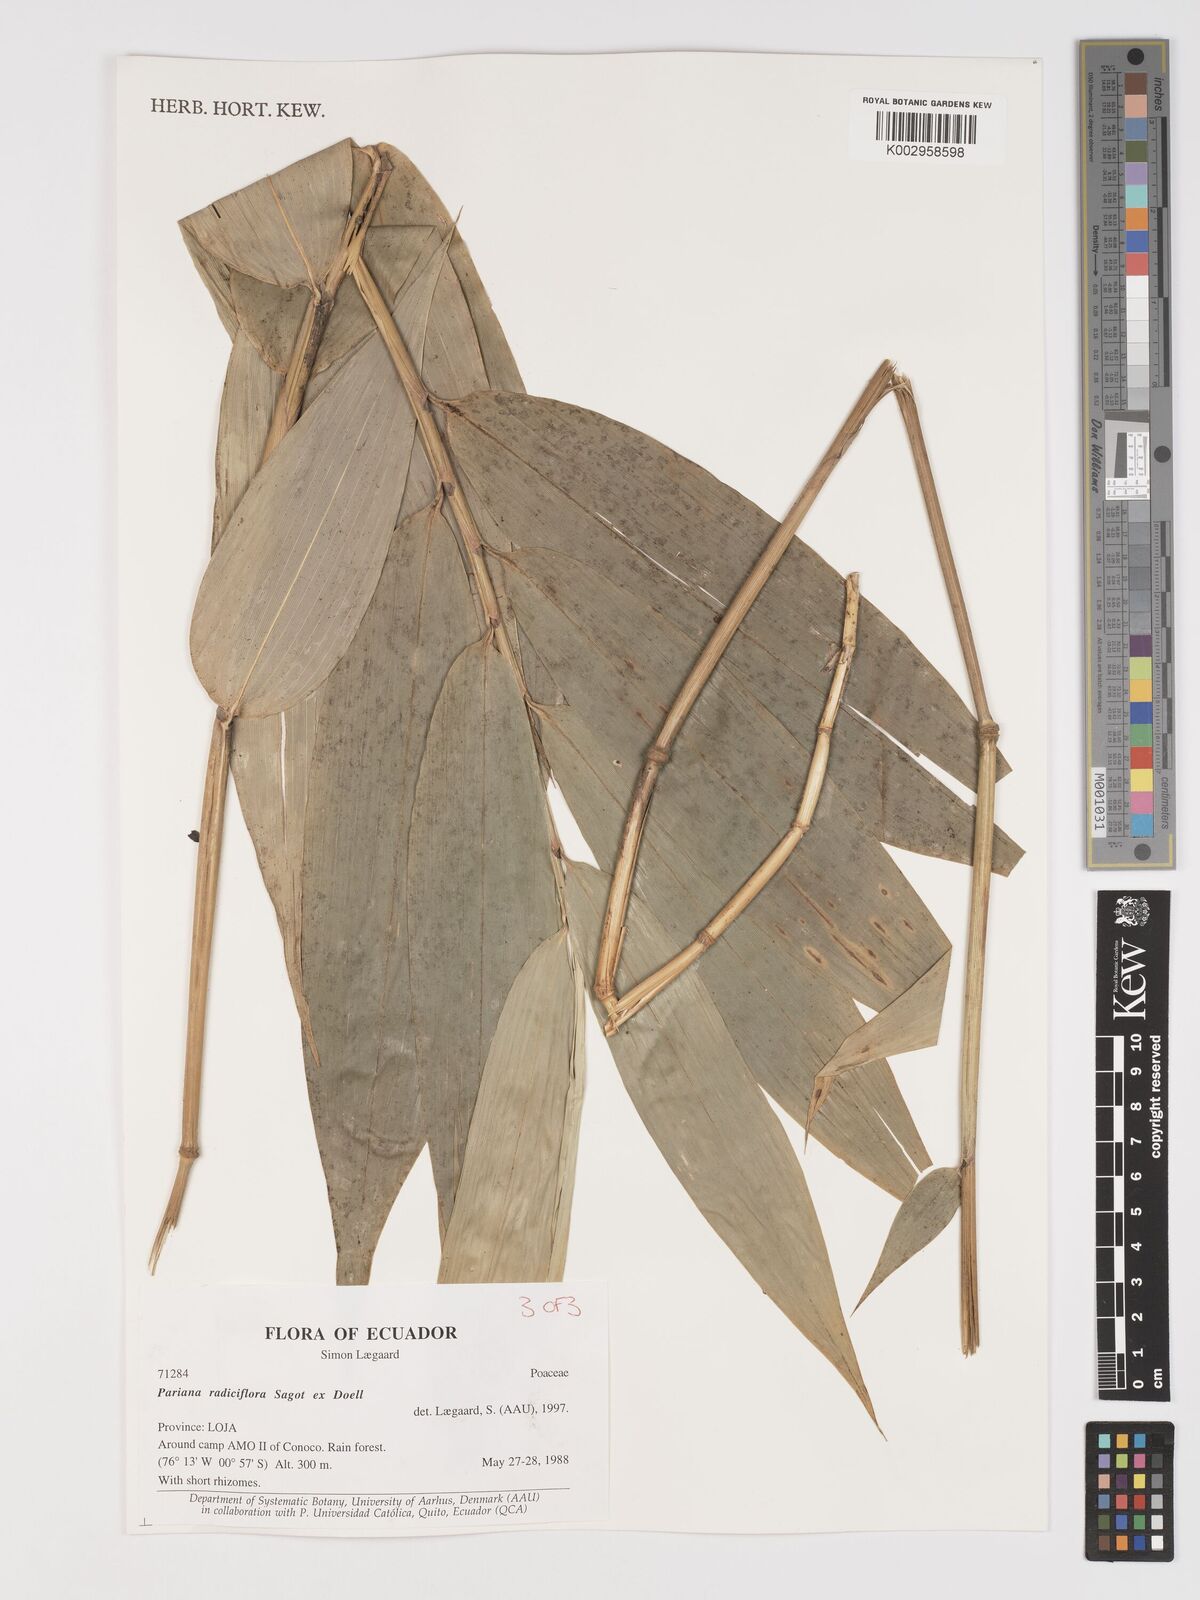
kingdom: Plantae
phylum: Tracheophyta
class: Liliopsida
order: Poales
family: Poaceae
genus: Pariana
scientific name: Pariana radiciflora
